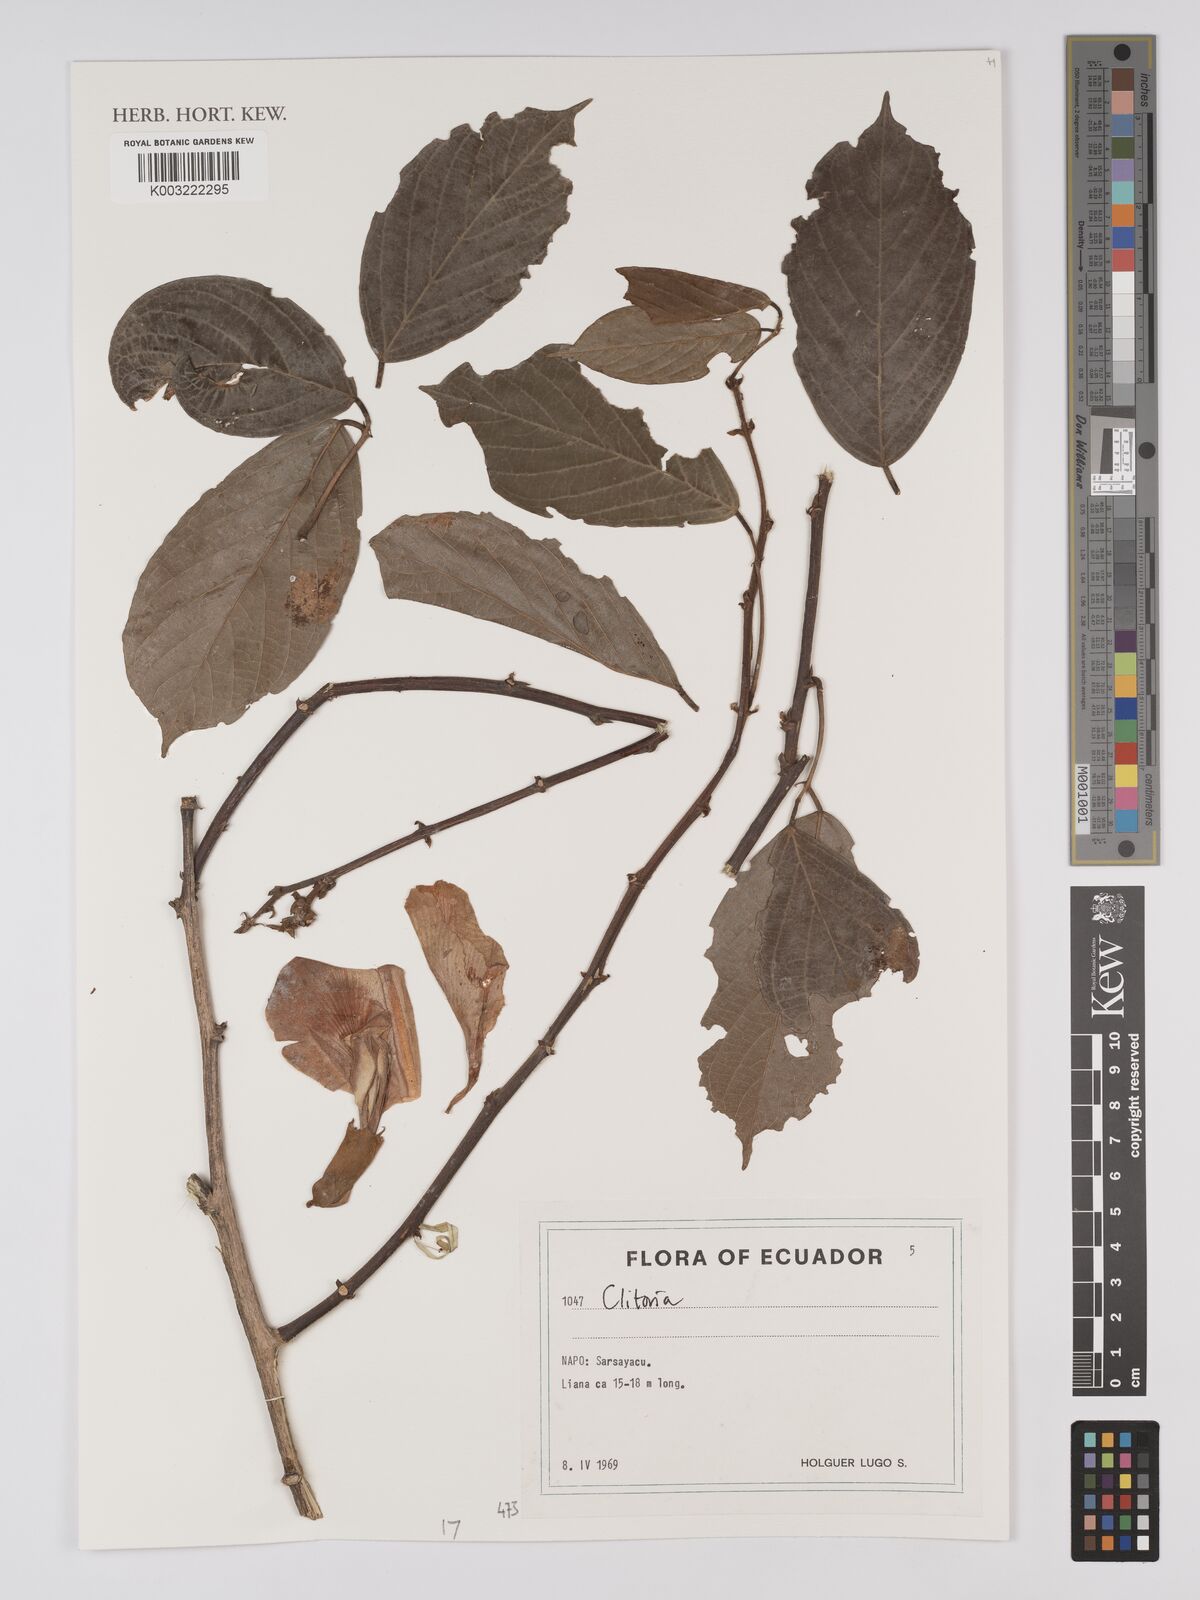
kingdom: Plantae
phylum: Tracheophyta
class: Magnoliopsida
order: Fabales
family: Fabaceae
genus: Clitoria
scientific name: Clitoria
